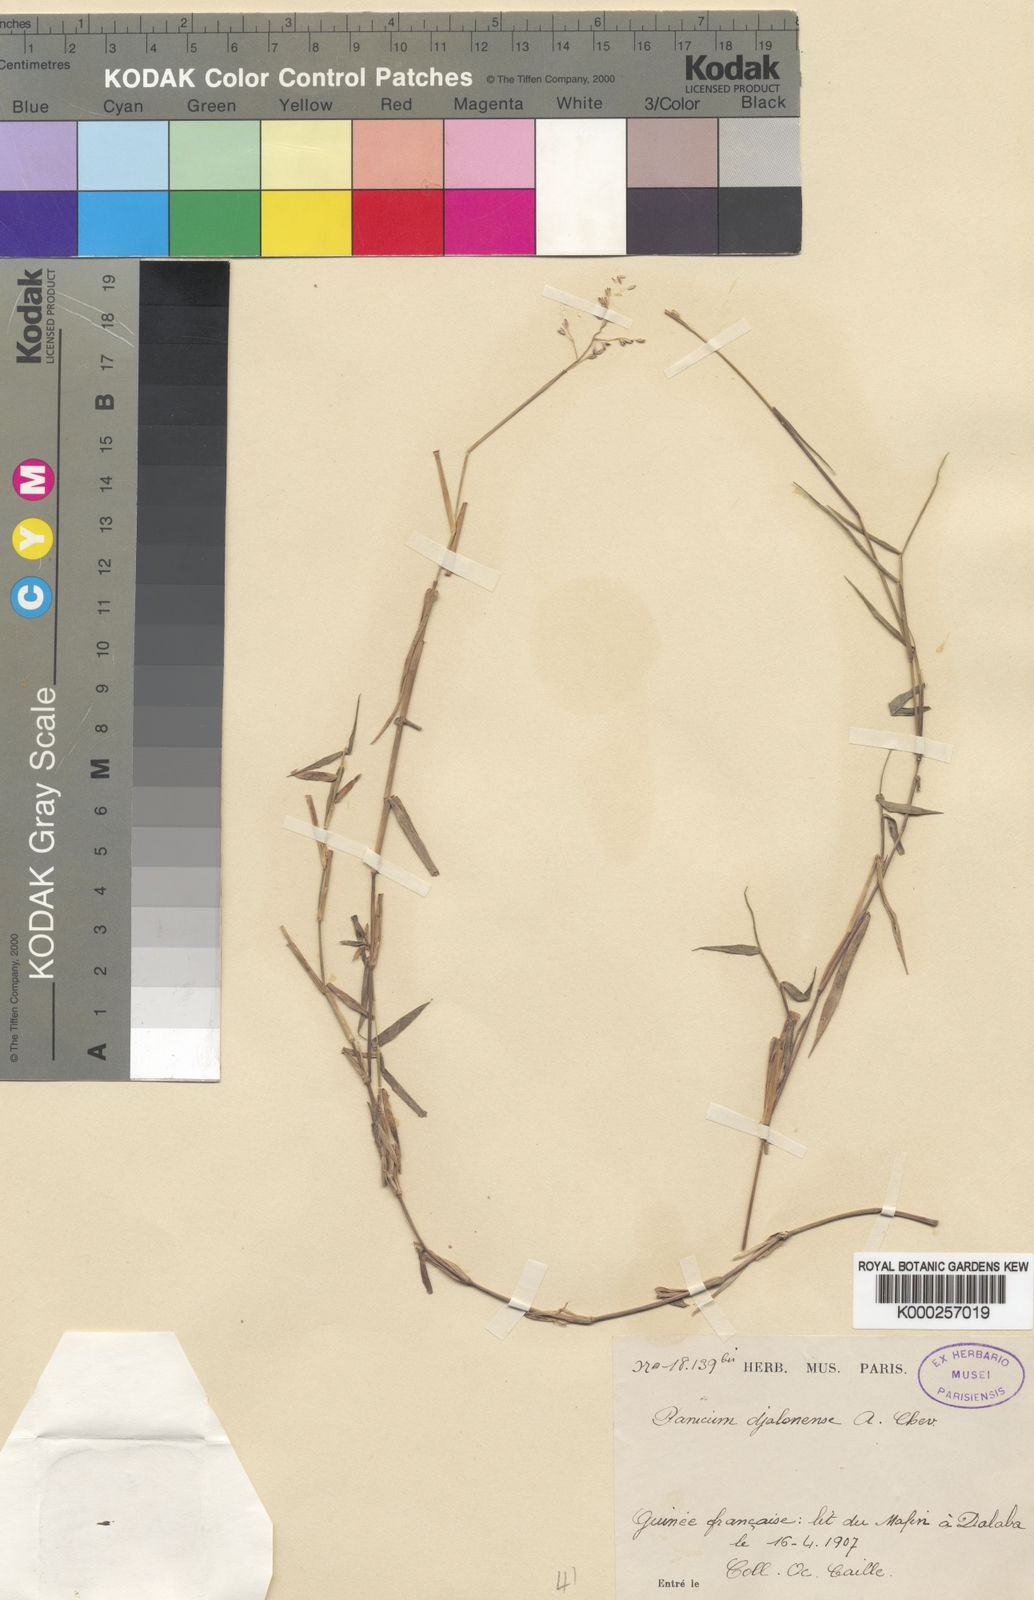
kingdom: Plantae
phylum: Tracheophyta
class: Liliopsida
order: Poales
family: Poaceae
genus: Adenochloa
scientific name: Adenochloa hymeniochila
